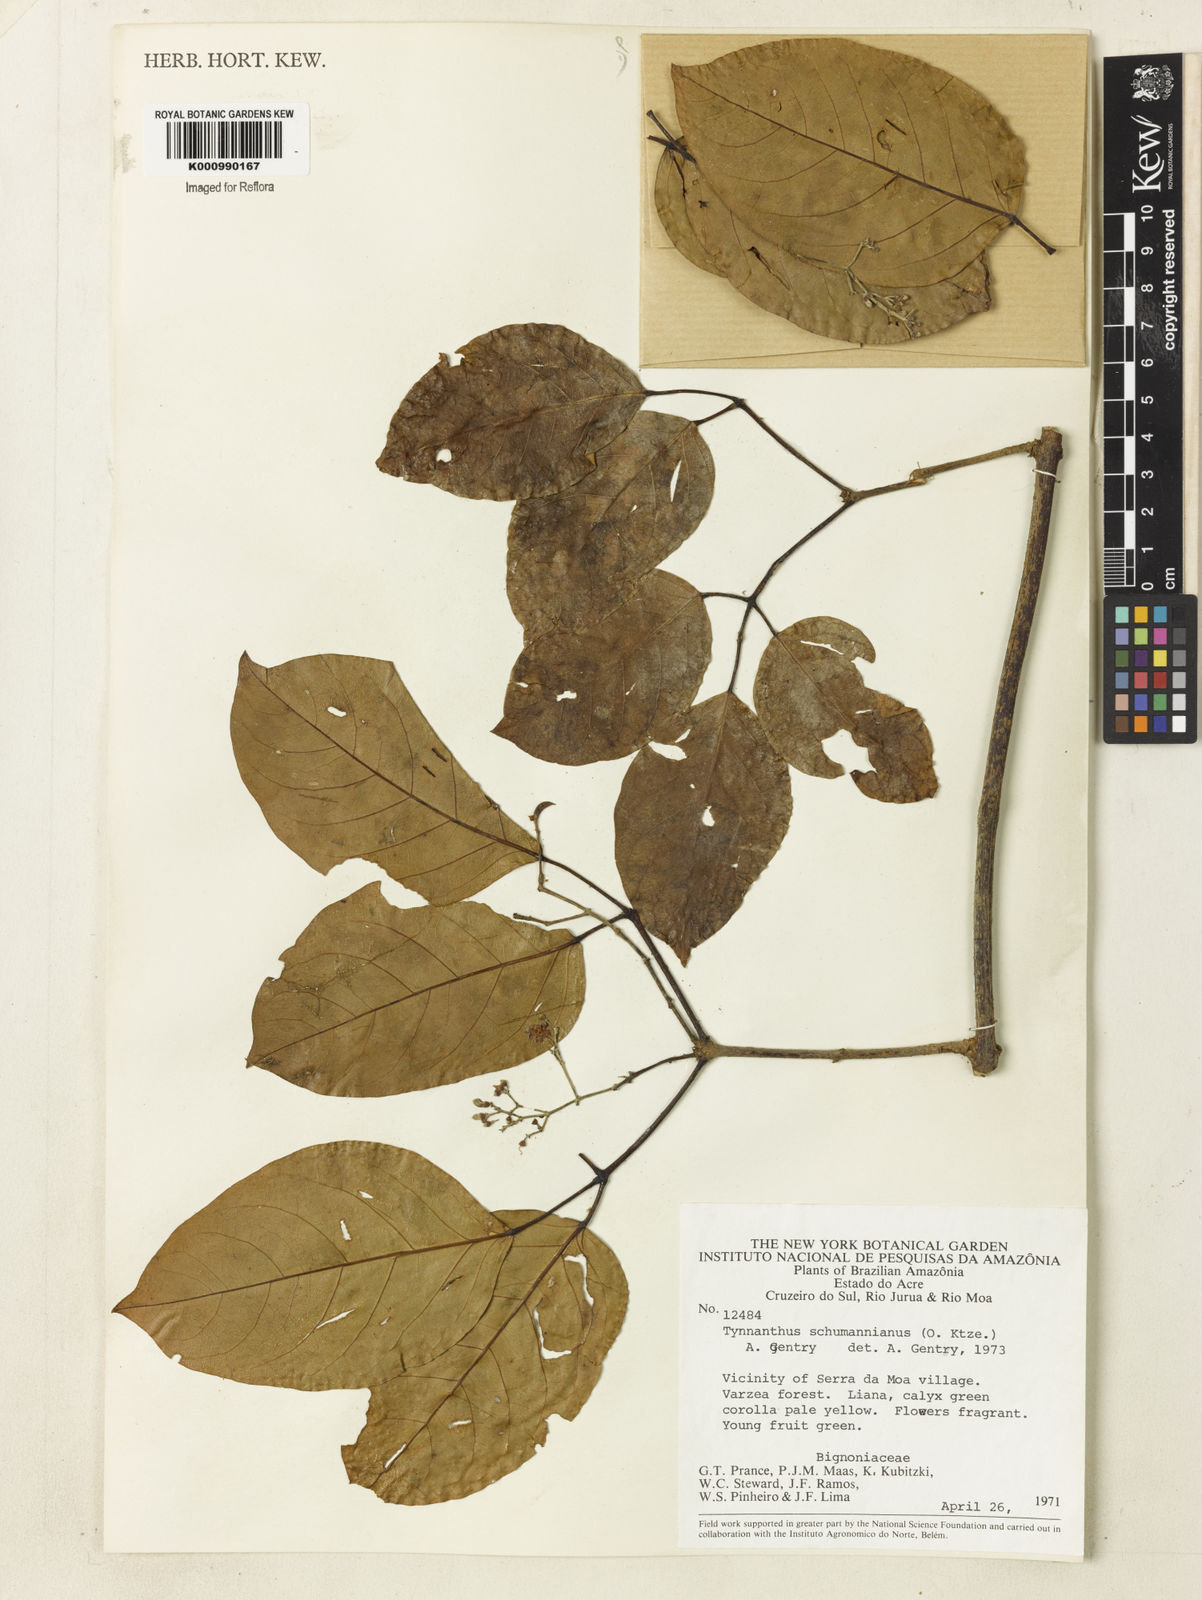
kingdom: Plantae
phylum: Tracheophyta
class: Magnoliopsida
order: Lamiales
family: Bignoniaceae
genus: Tynanthus
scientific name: Tynanthus schumannianus
